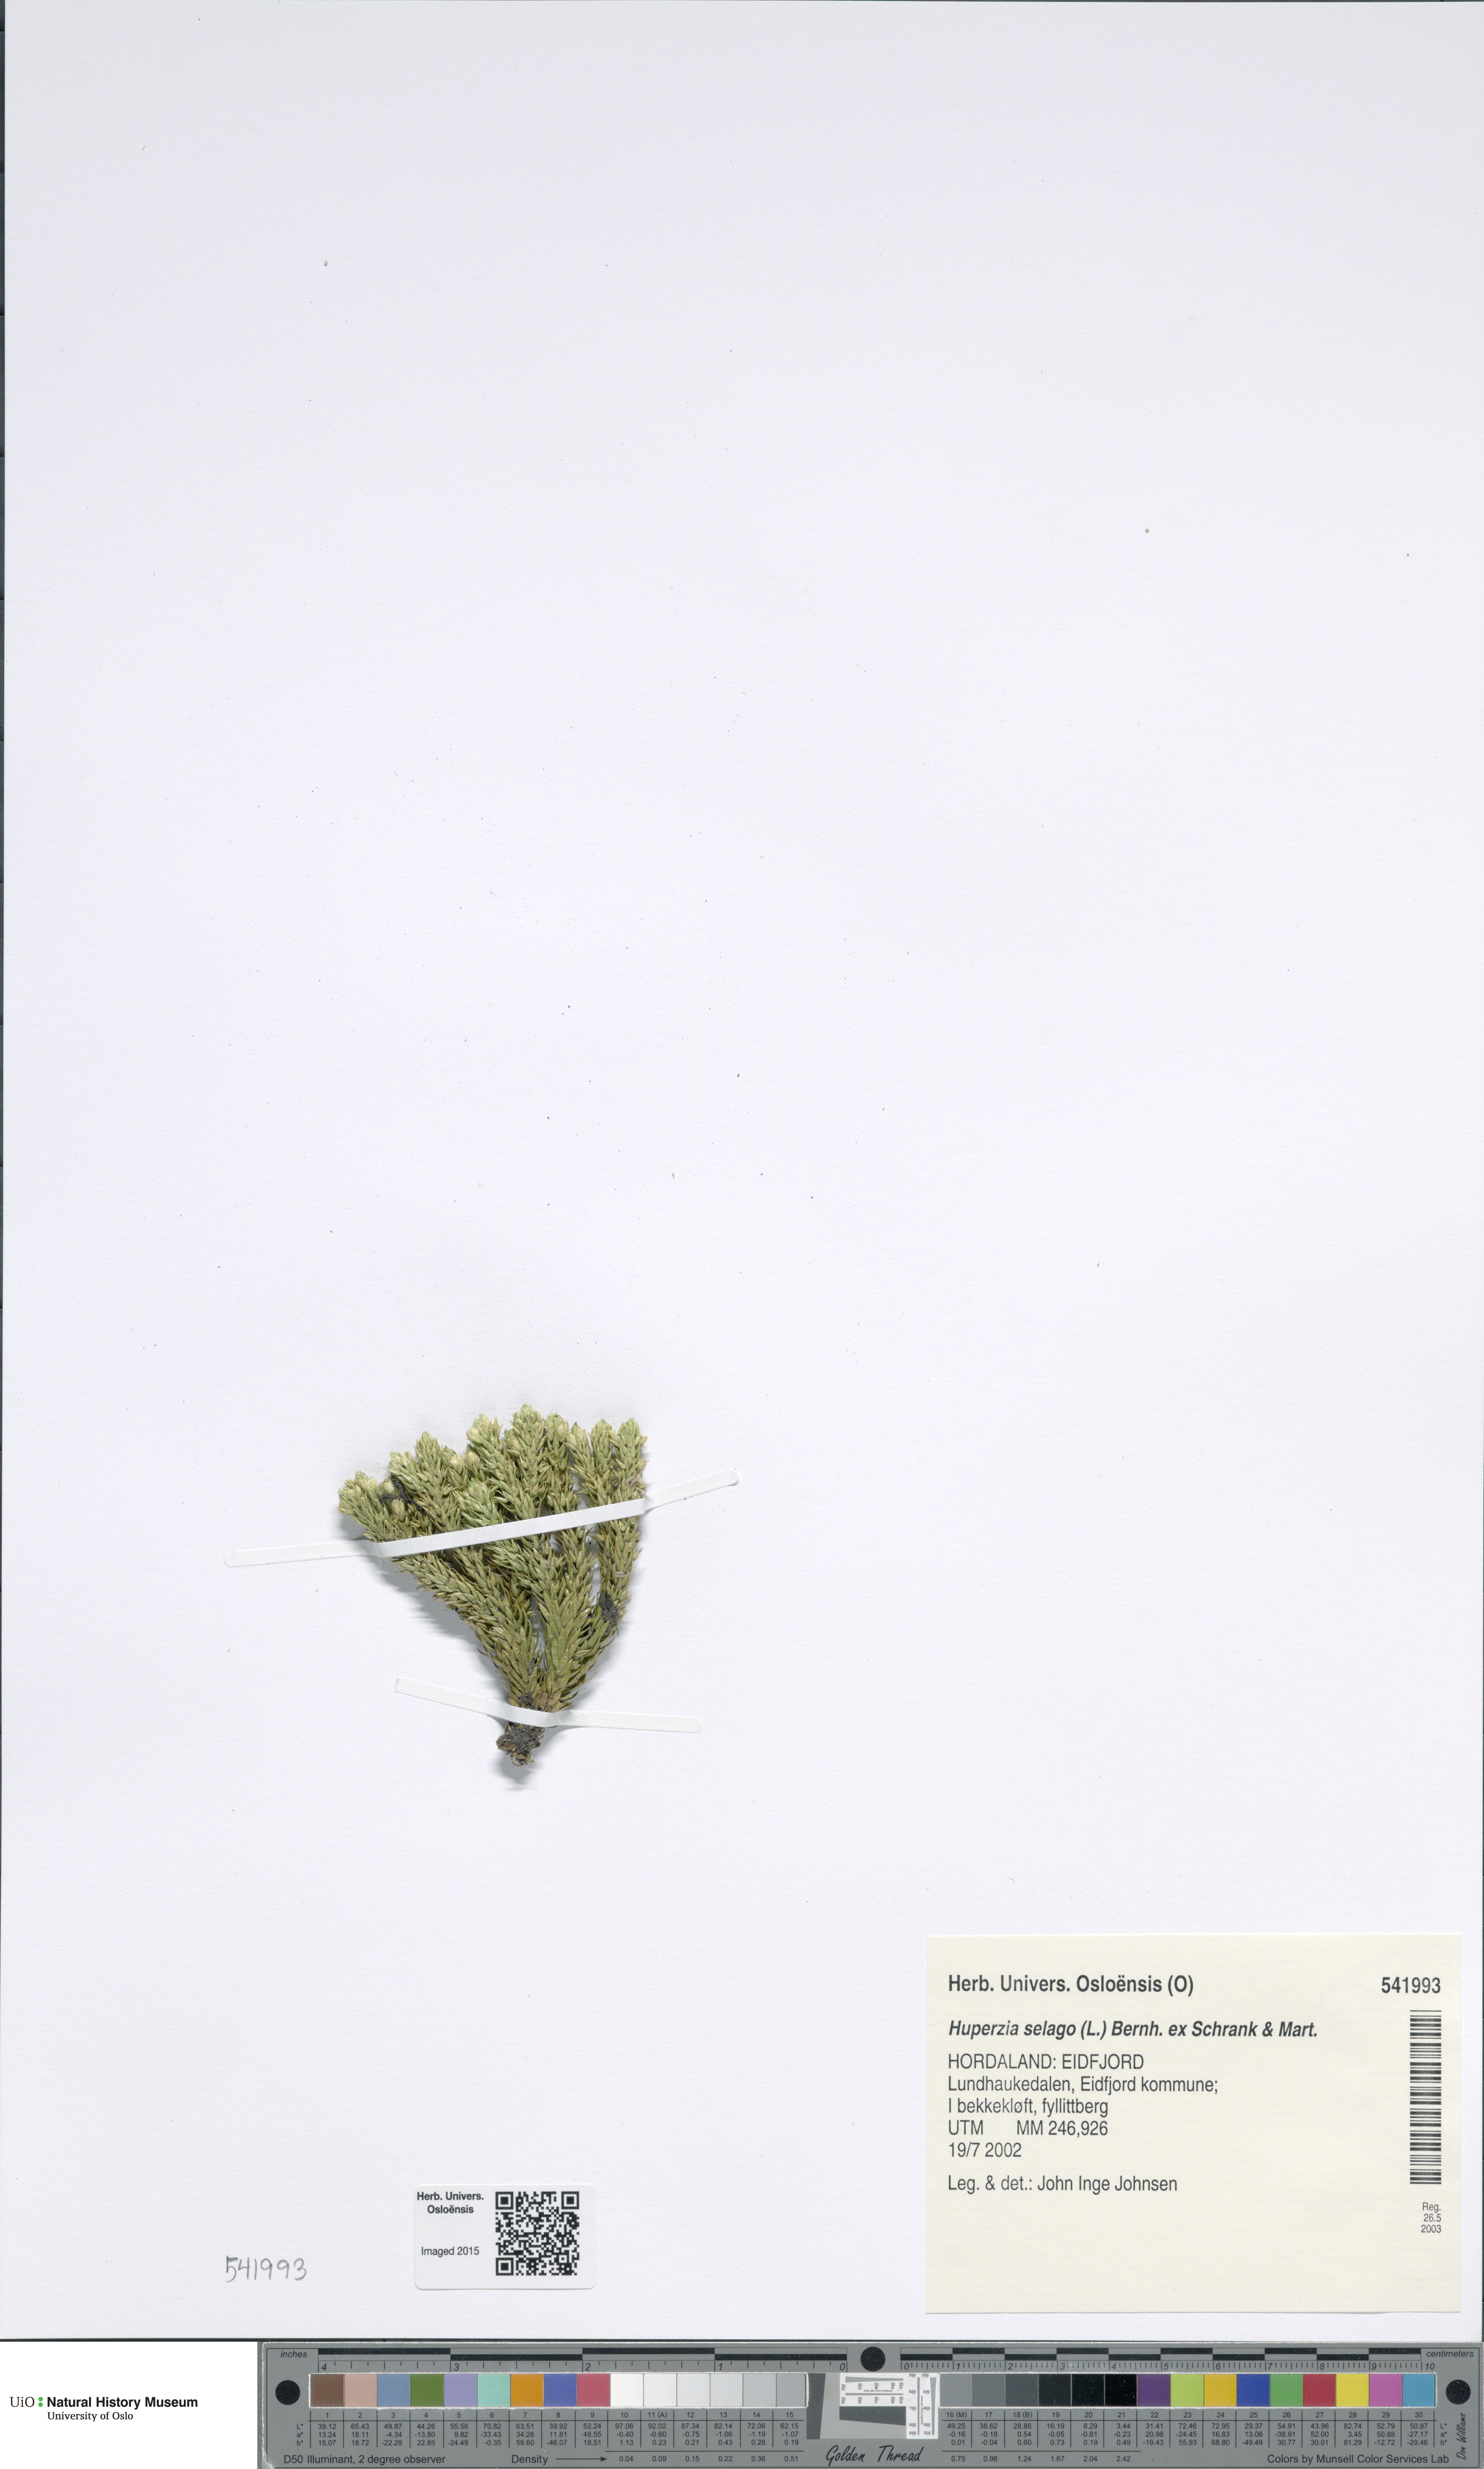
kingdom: Plantae
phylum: Tracheophyta
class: Lycopodiopsida
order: Lycopodiales
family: Lycopodiaceae
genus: Huperzia
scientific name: Huperzia selago
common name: Northern firmoss
